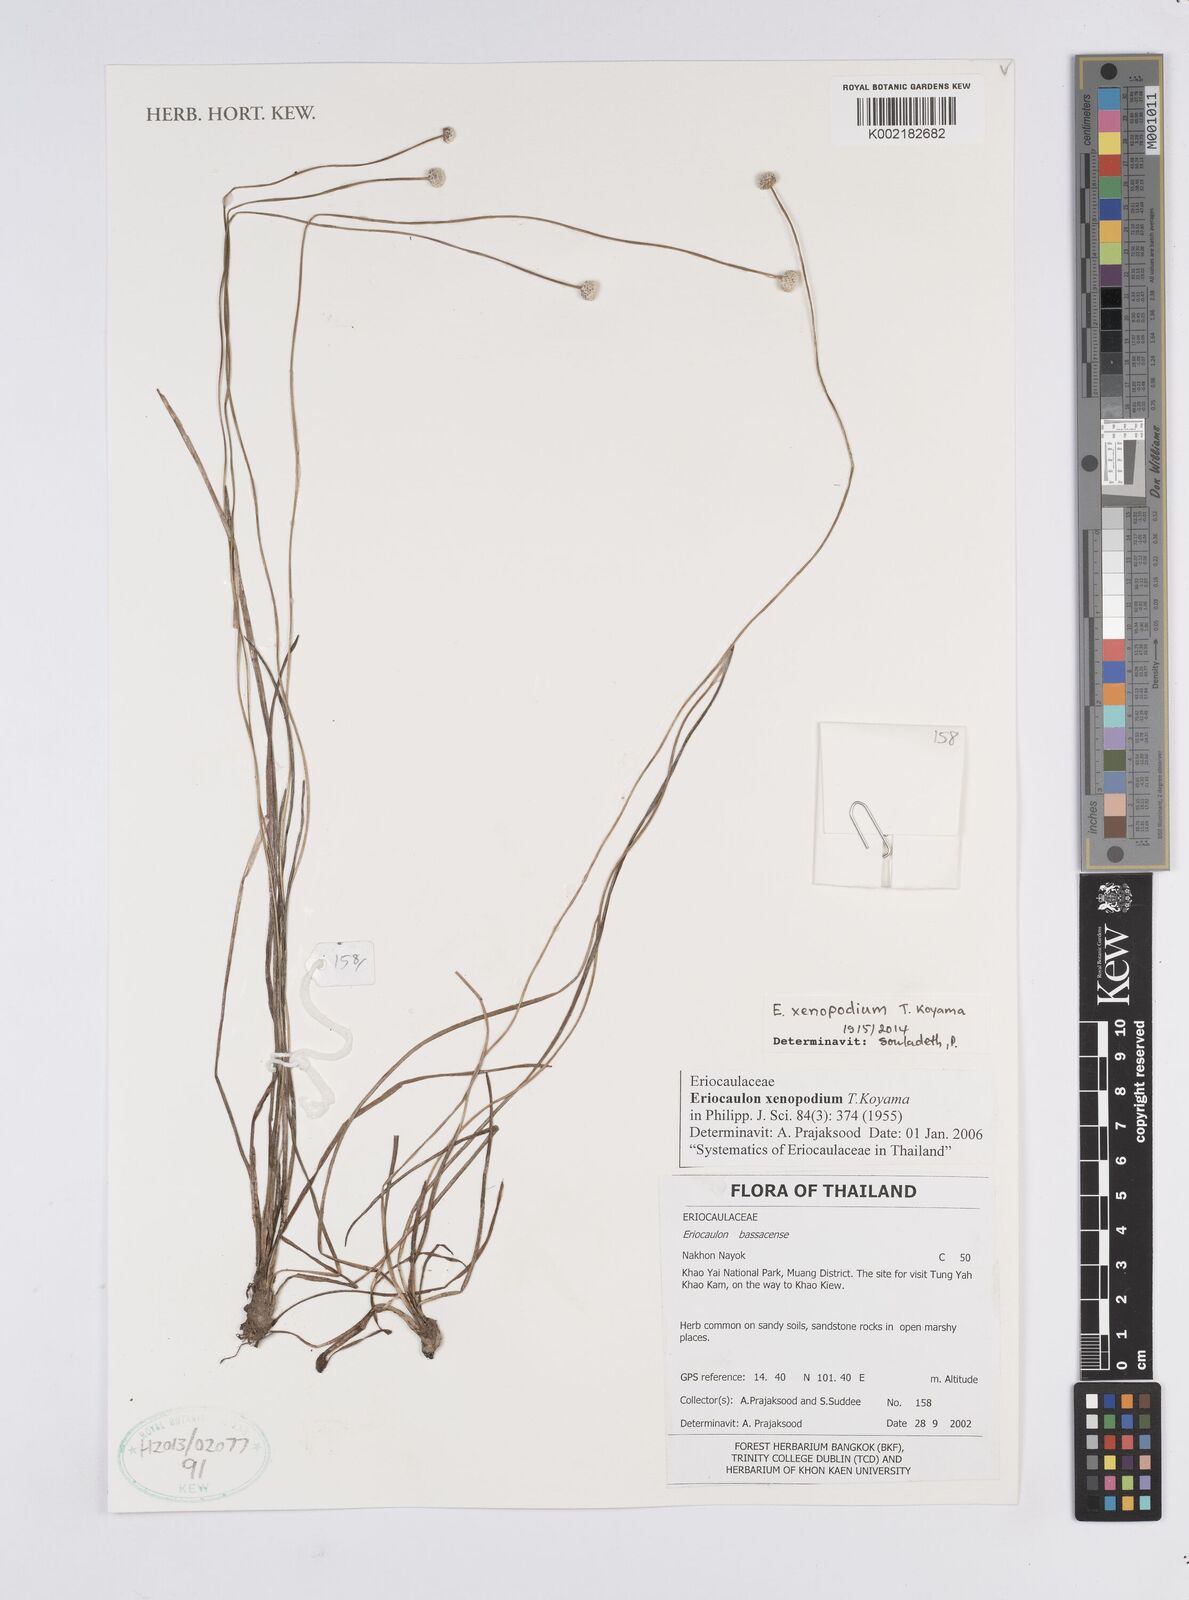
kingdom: Plantae
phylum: Tracheophyta
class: Liliopsida
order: Poales
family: Eriocaulaceae
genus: Eriocaulon
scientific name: Eriocaulon xenopodion
